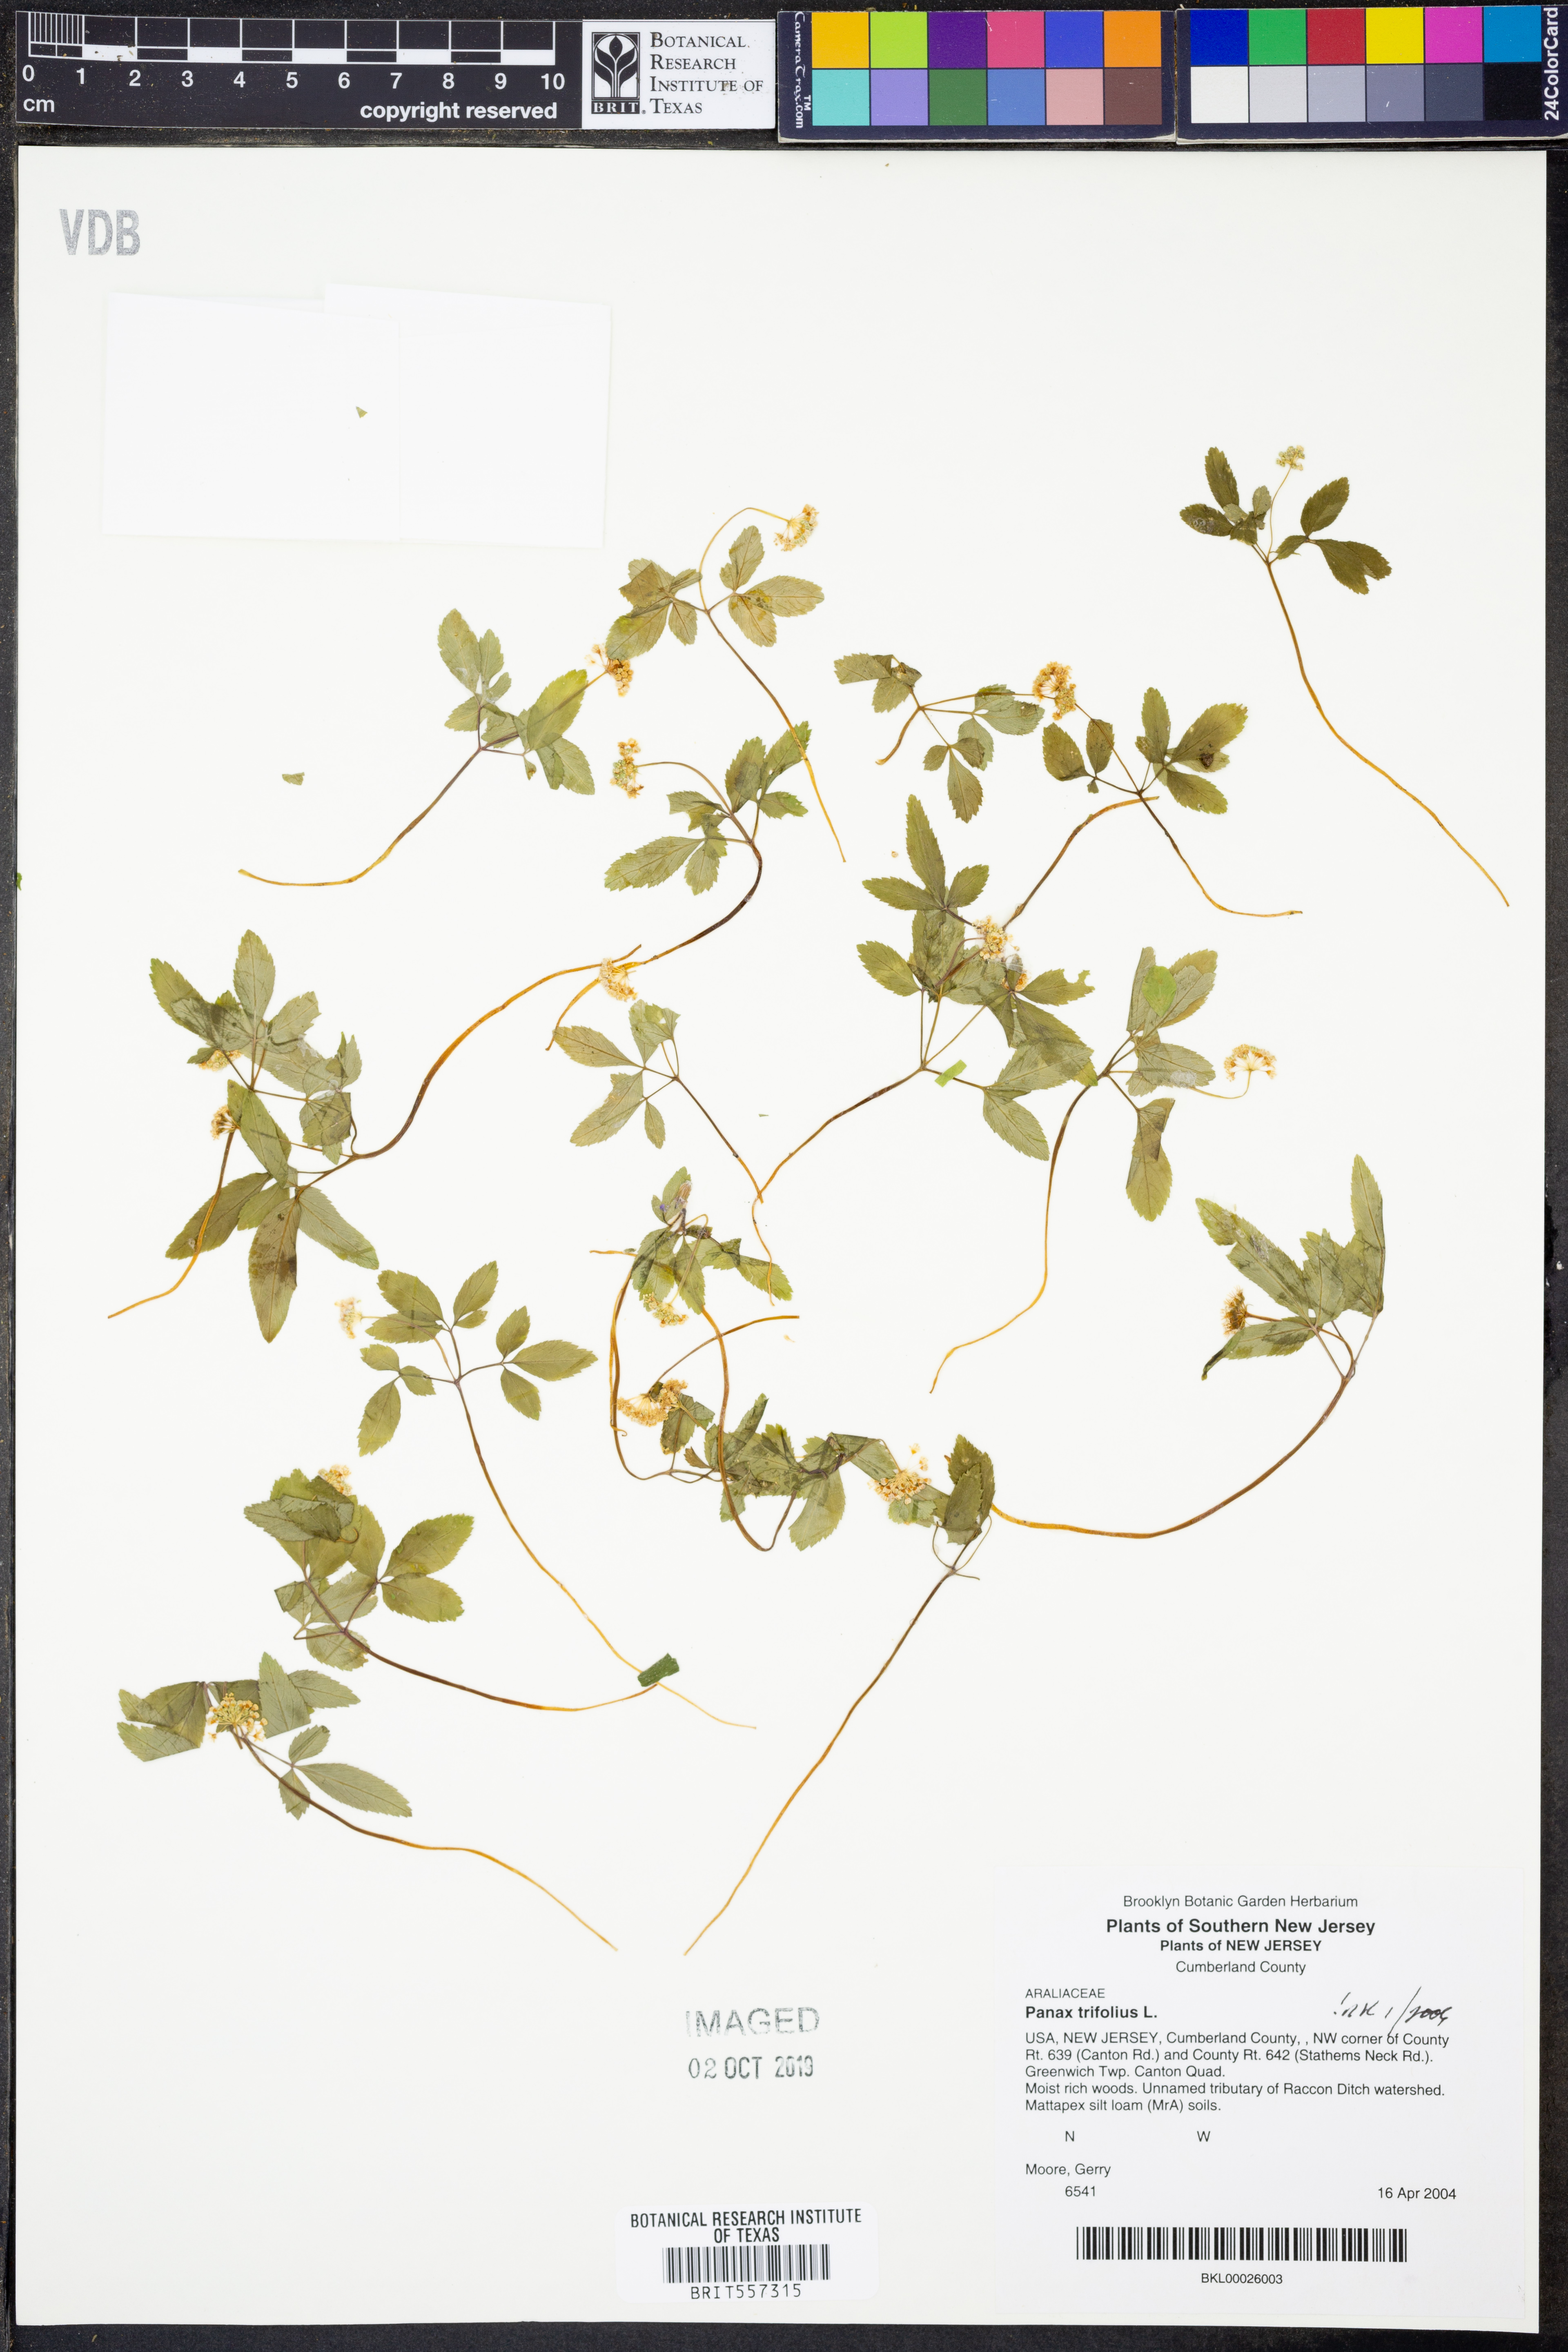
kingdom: Plantae
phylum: Tracheophyta
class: Magnoliopsida
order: Apiales
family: Araliaceae
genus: Panax
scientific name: Panax trifolius
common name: Dwarf ginseng
